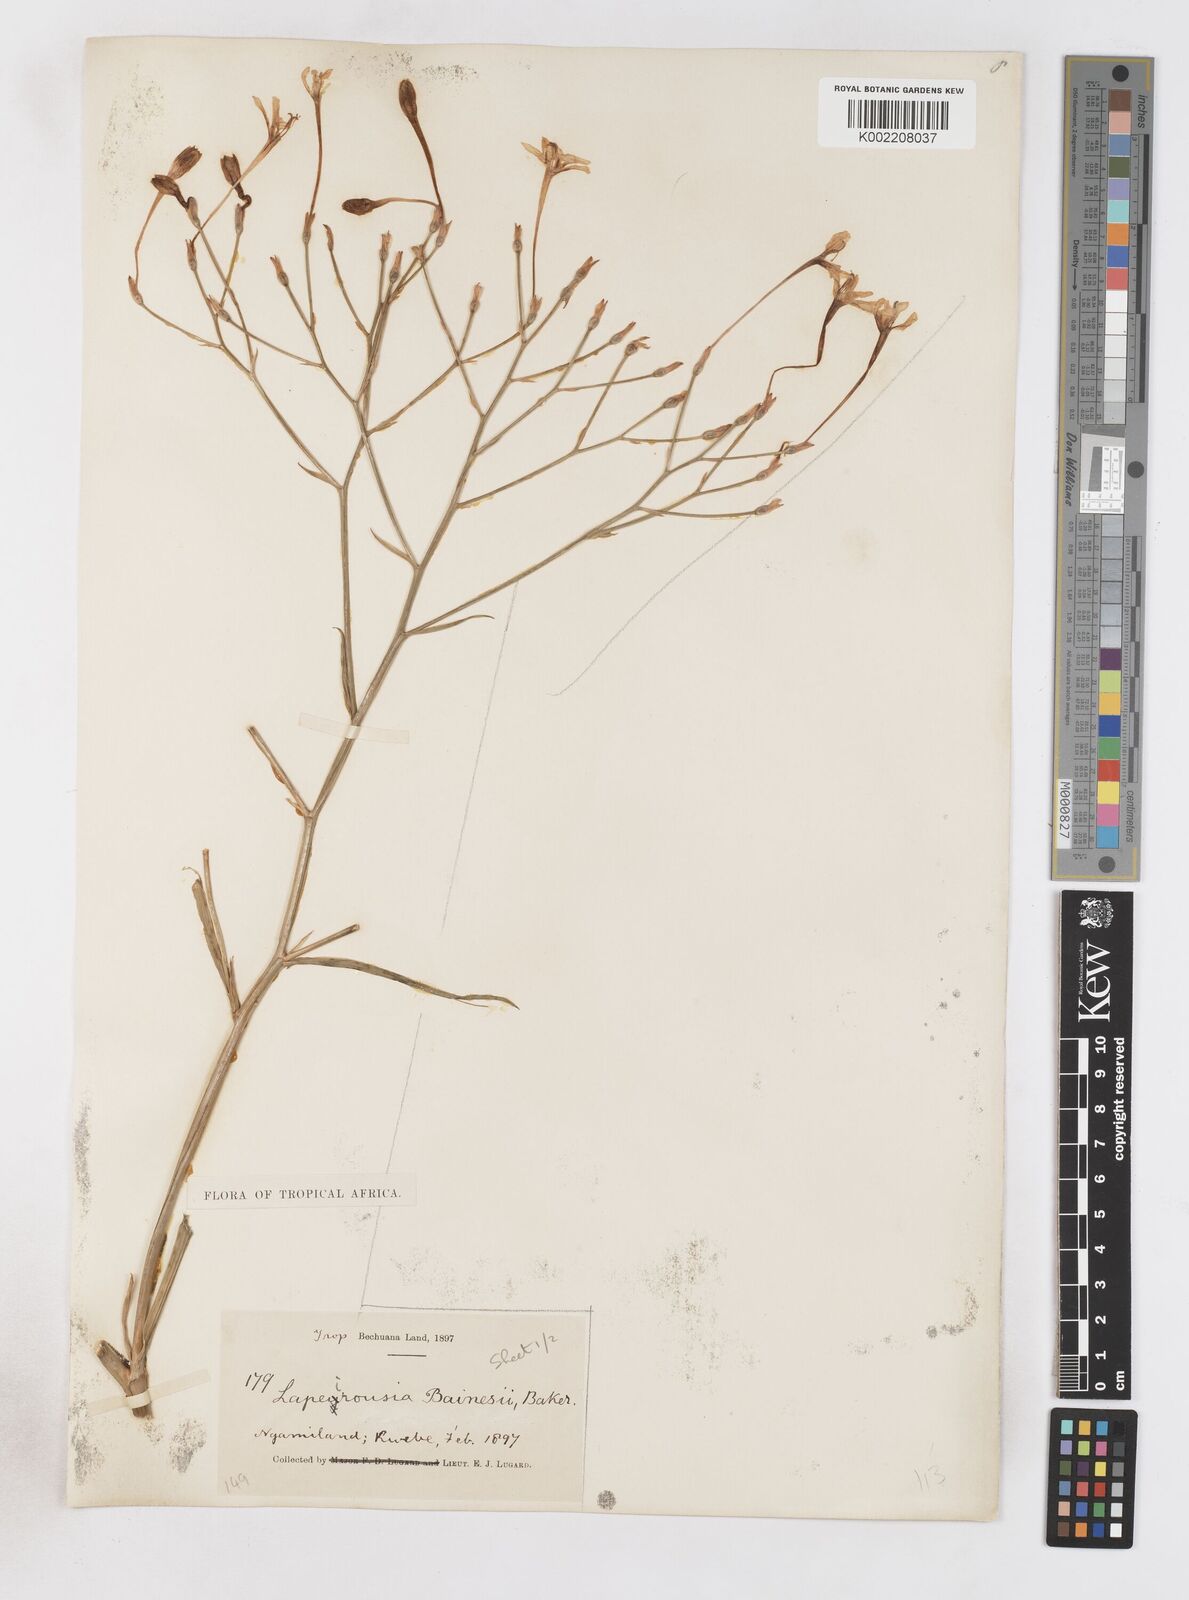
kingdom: Plantae
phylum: Tracheophyta
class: Liliopsida
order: Asparagales
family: Iridaceae
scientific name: Iridaceae
